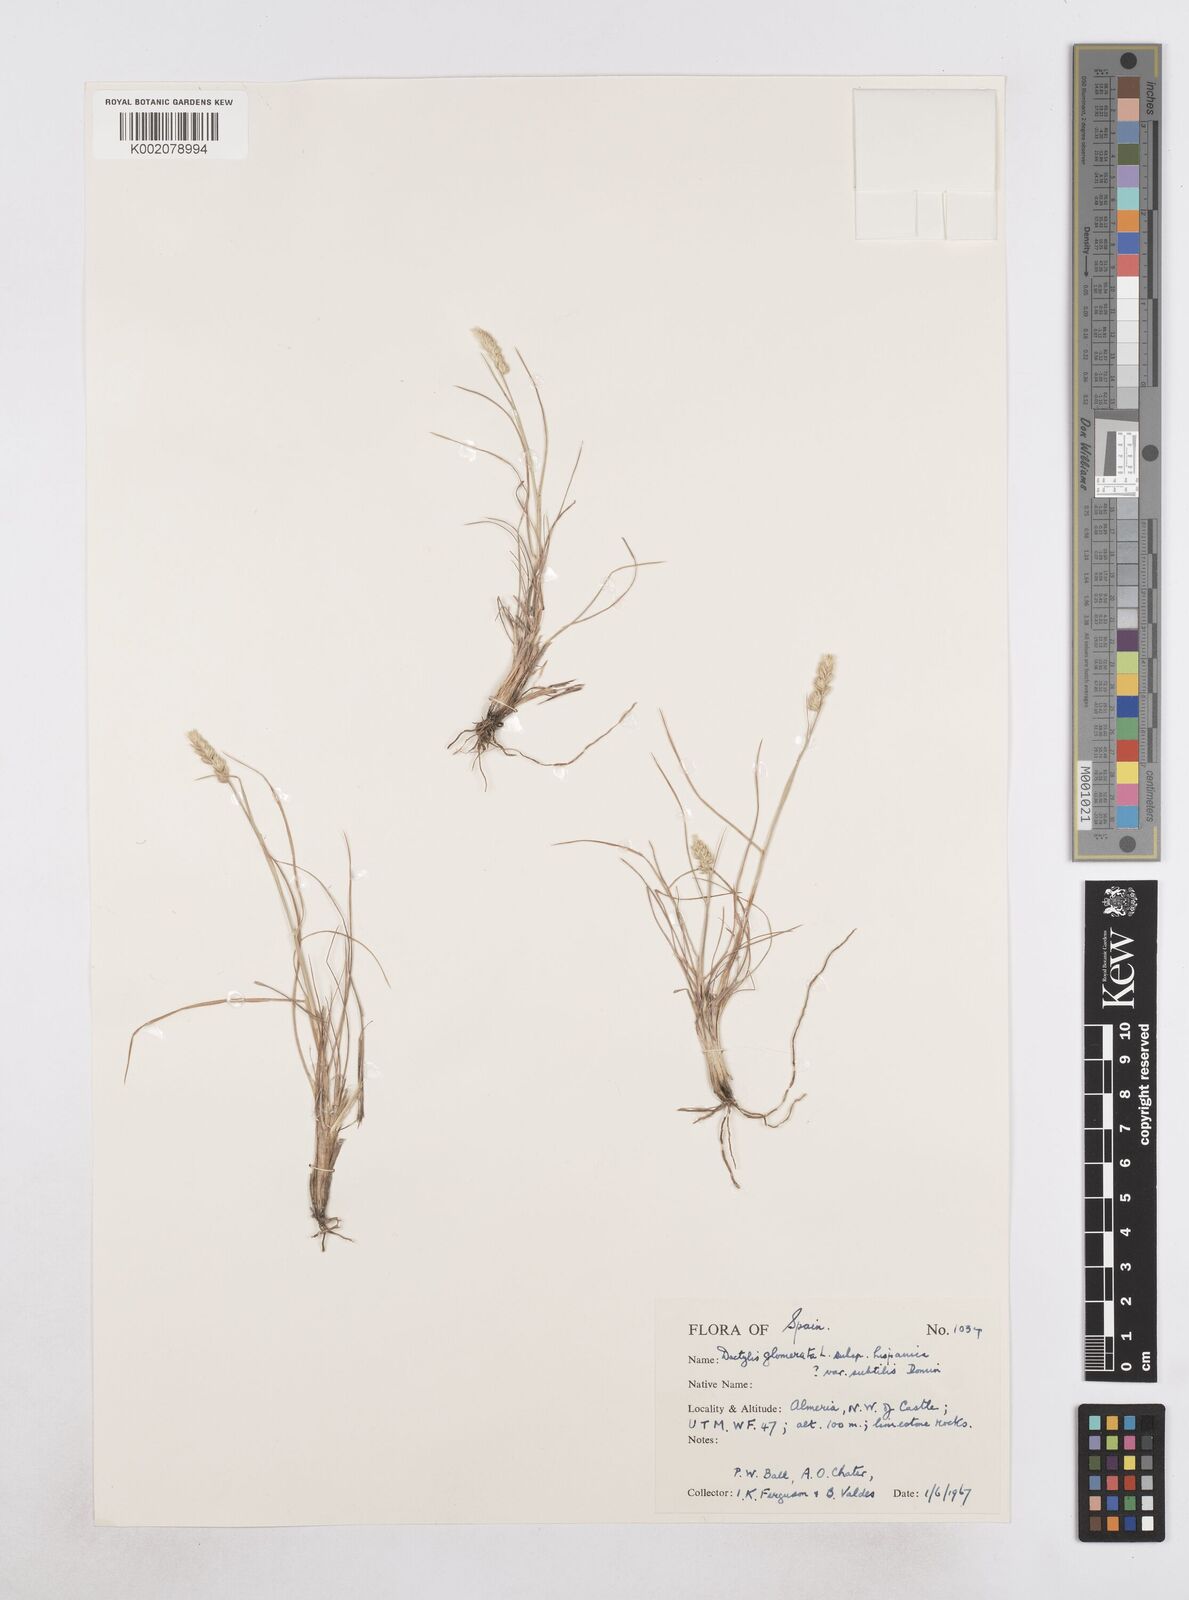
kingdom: Plantae
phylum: Tracheophyta
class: Liliopsida
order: Poales
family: Poaceae
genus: Dactylis
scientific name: Dactylis glomerata
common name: Orchardgrass
